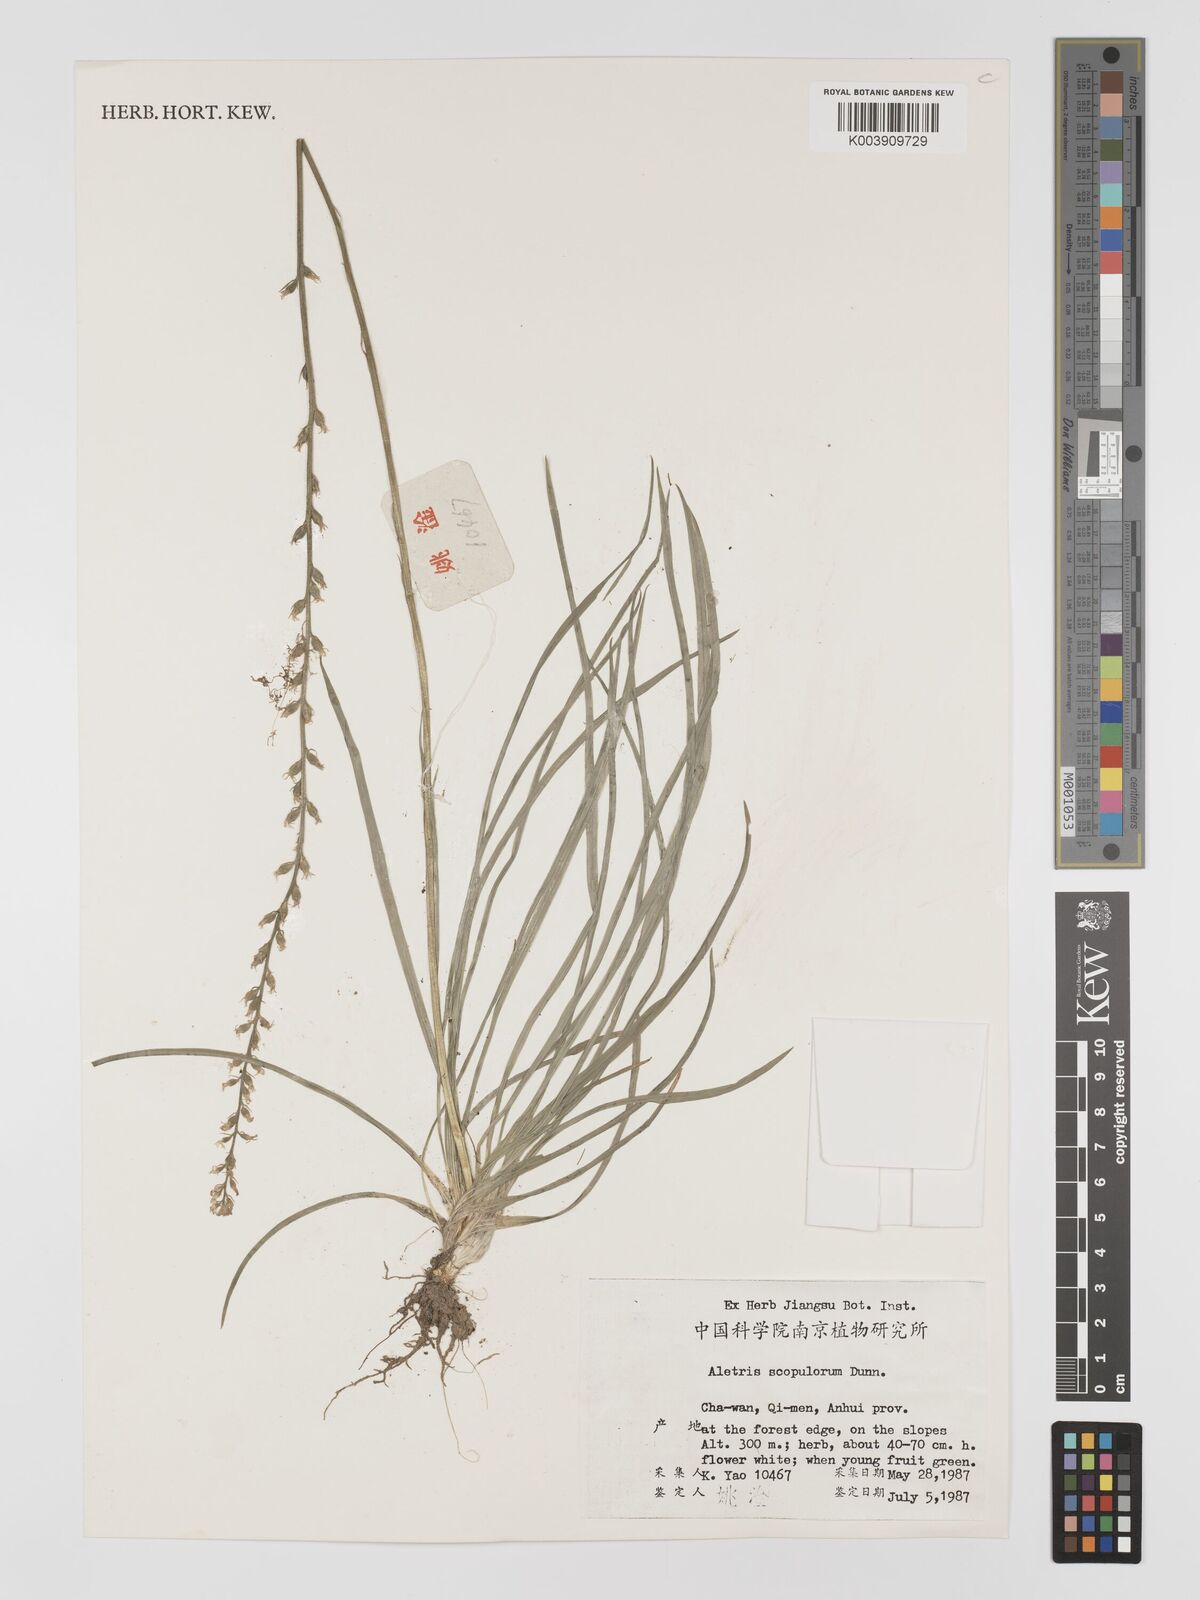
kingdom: Plantae
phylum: Tracheophyta
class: Liliopsida
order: Dioscoreales
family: Nartheciaceae
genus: Aletris
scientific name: Aletris scopulorum
